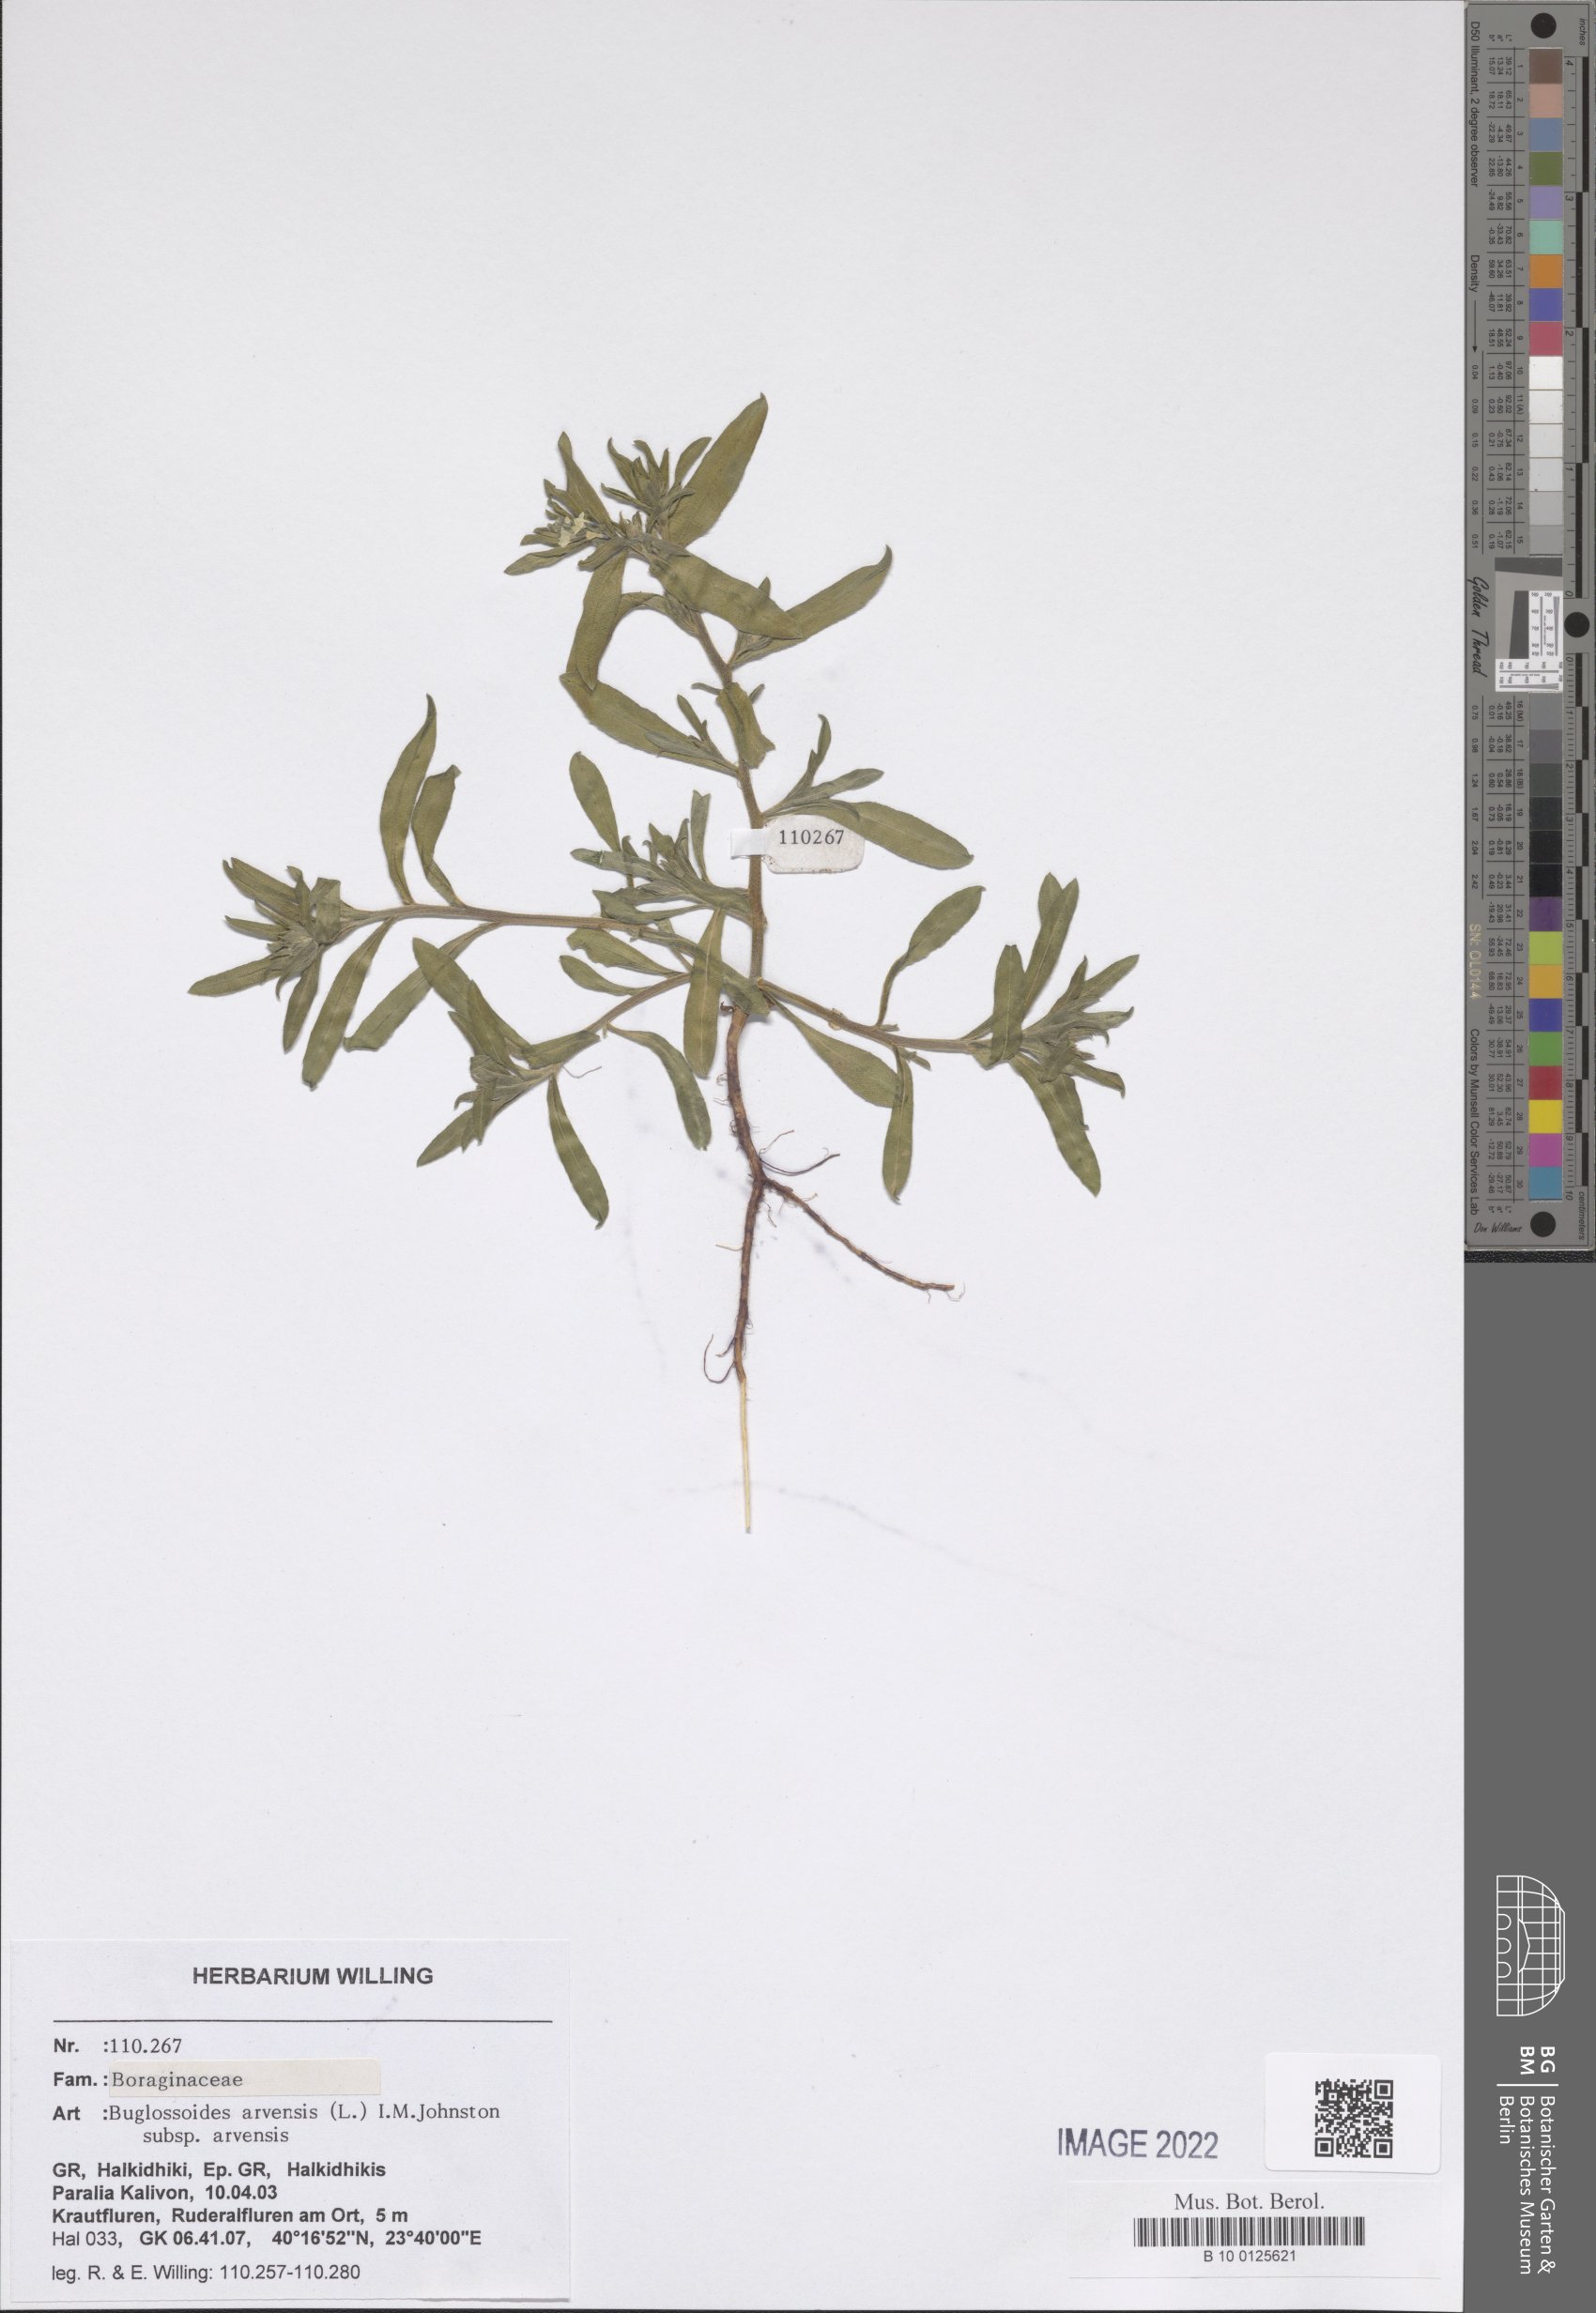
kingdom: Plantae
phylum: Tracheophyta
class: Magnoliopsida
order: Boraginales
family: Boraginaceae
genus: Buglossoides
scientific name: Buglossoides arvensis
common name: Corn gromwell
